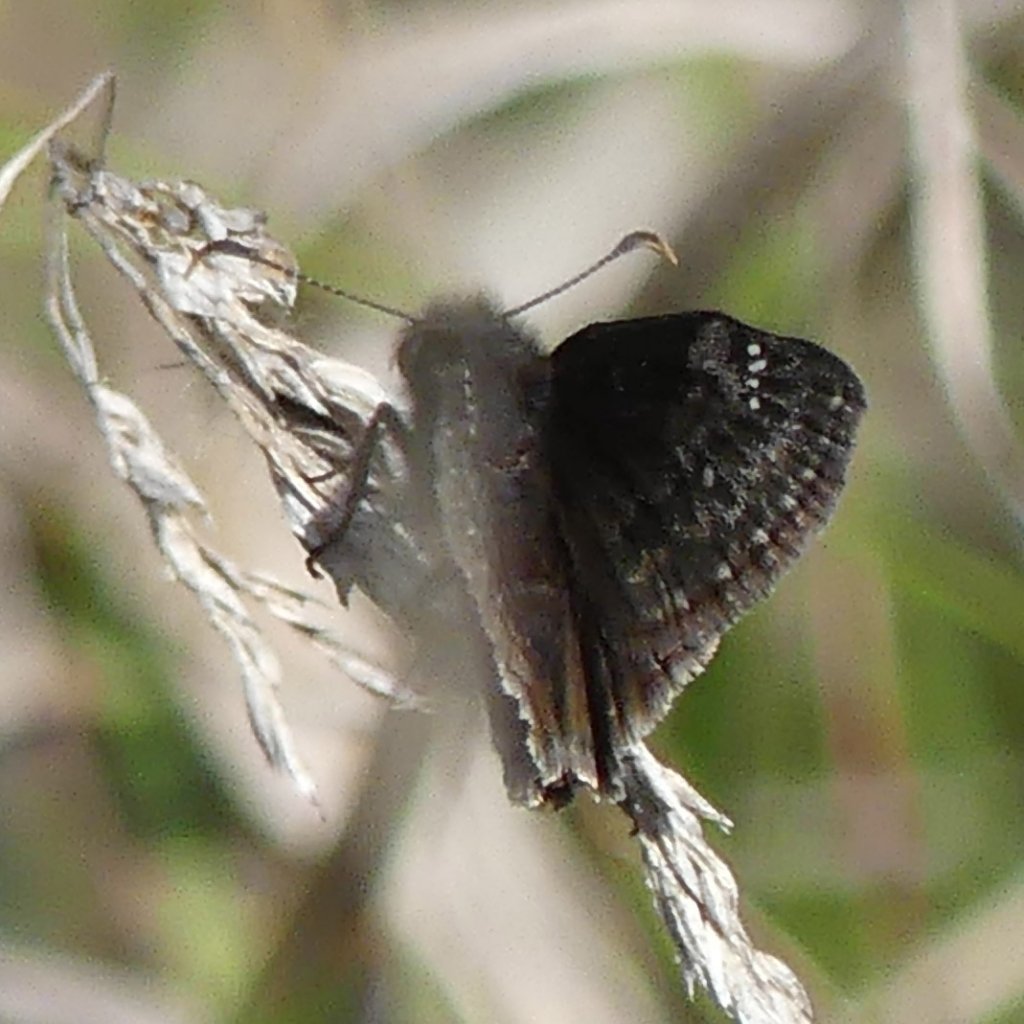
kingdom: Animalia
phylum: Arthropoda
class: Insecta
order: Lepidoptera
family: Hesperiidae
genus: Gesta
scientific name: Gesta
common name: Wild Indigo Duskywing
